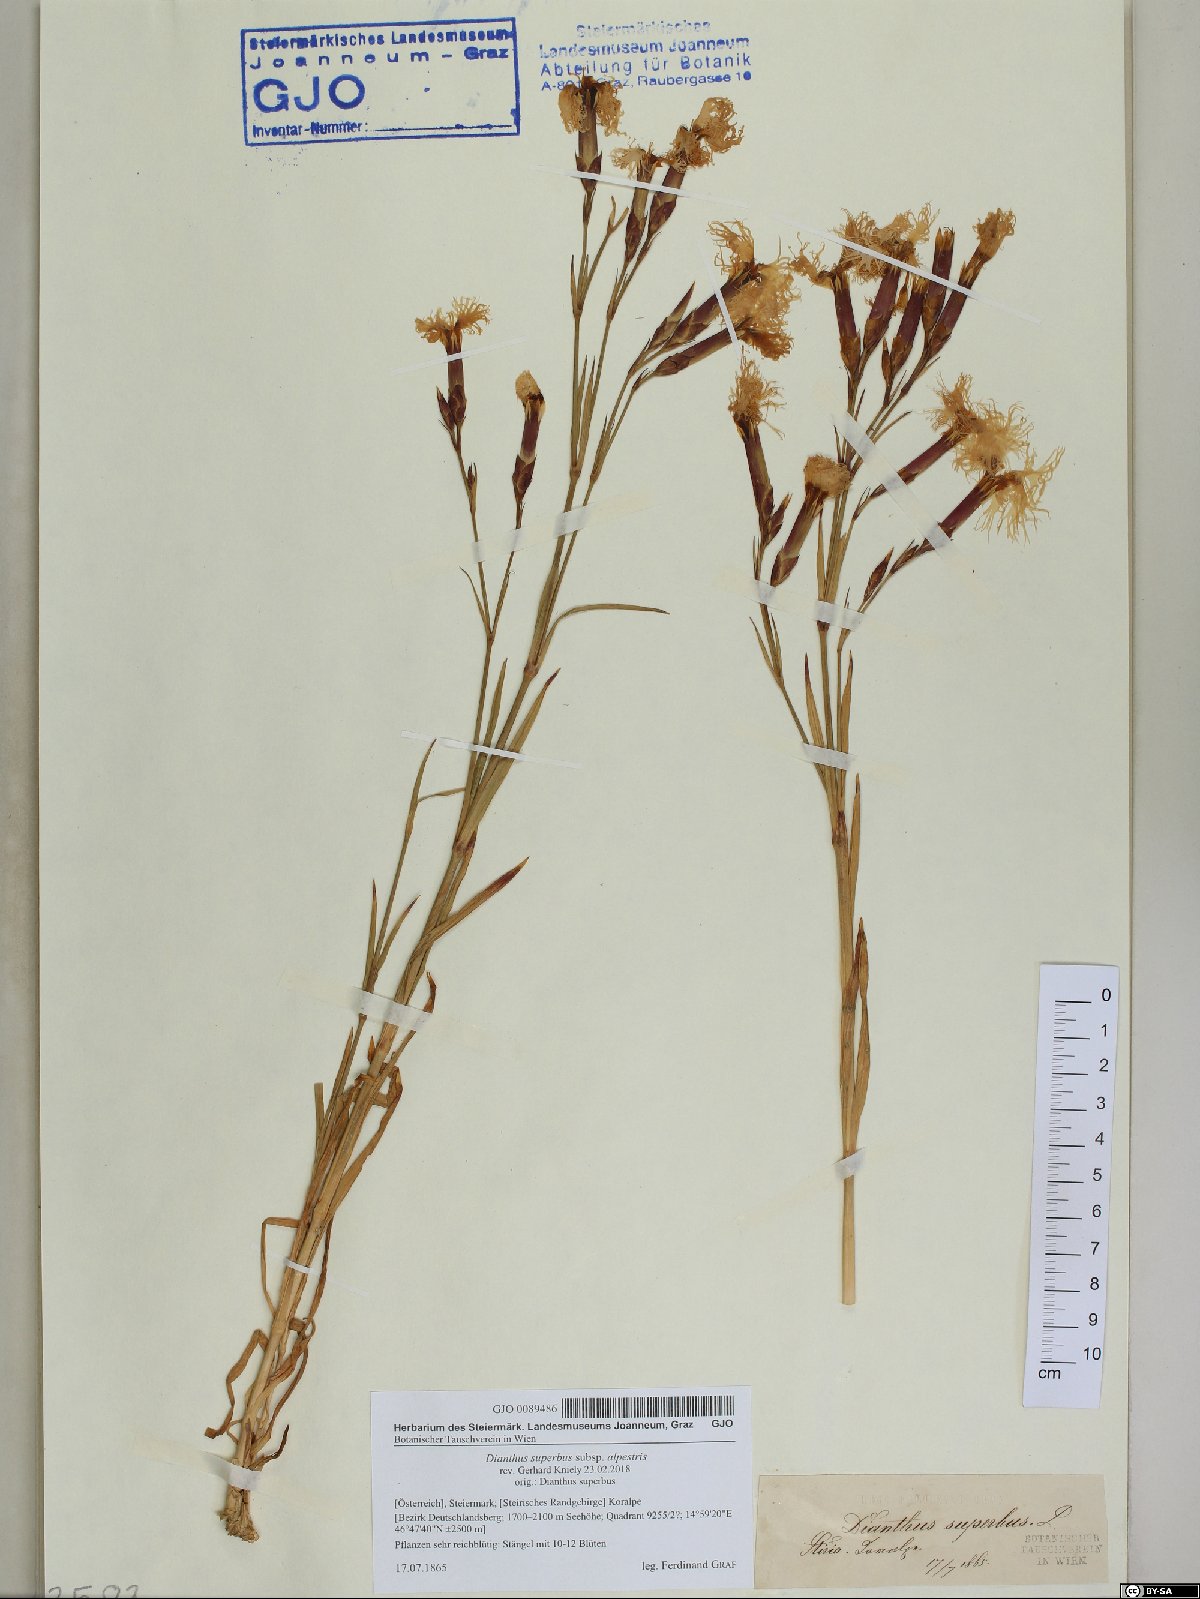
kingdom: Plantae
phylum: Tracheophyta
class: Magnoliopsida
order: Caryophyllales
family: Caryophyllaceae
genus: Dianthus
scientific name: Dianthus superbus
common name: Fringed pink
